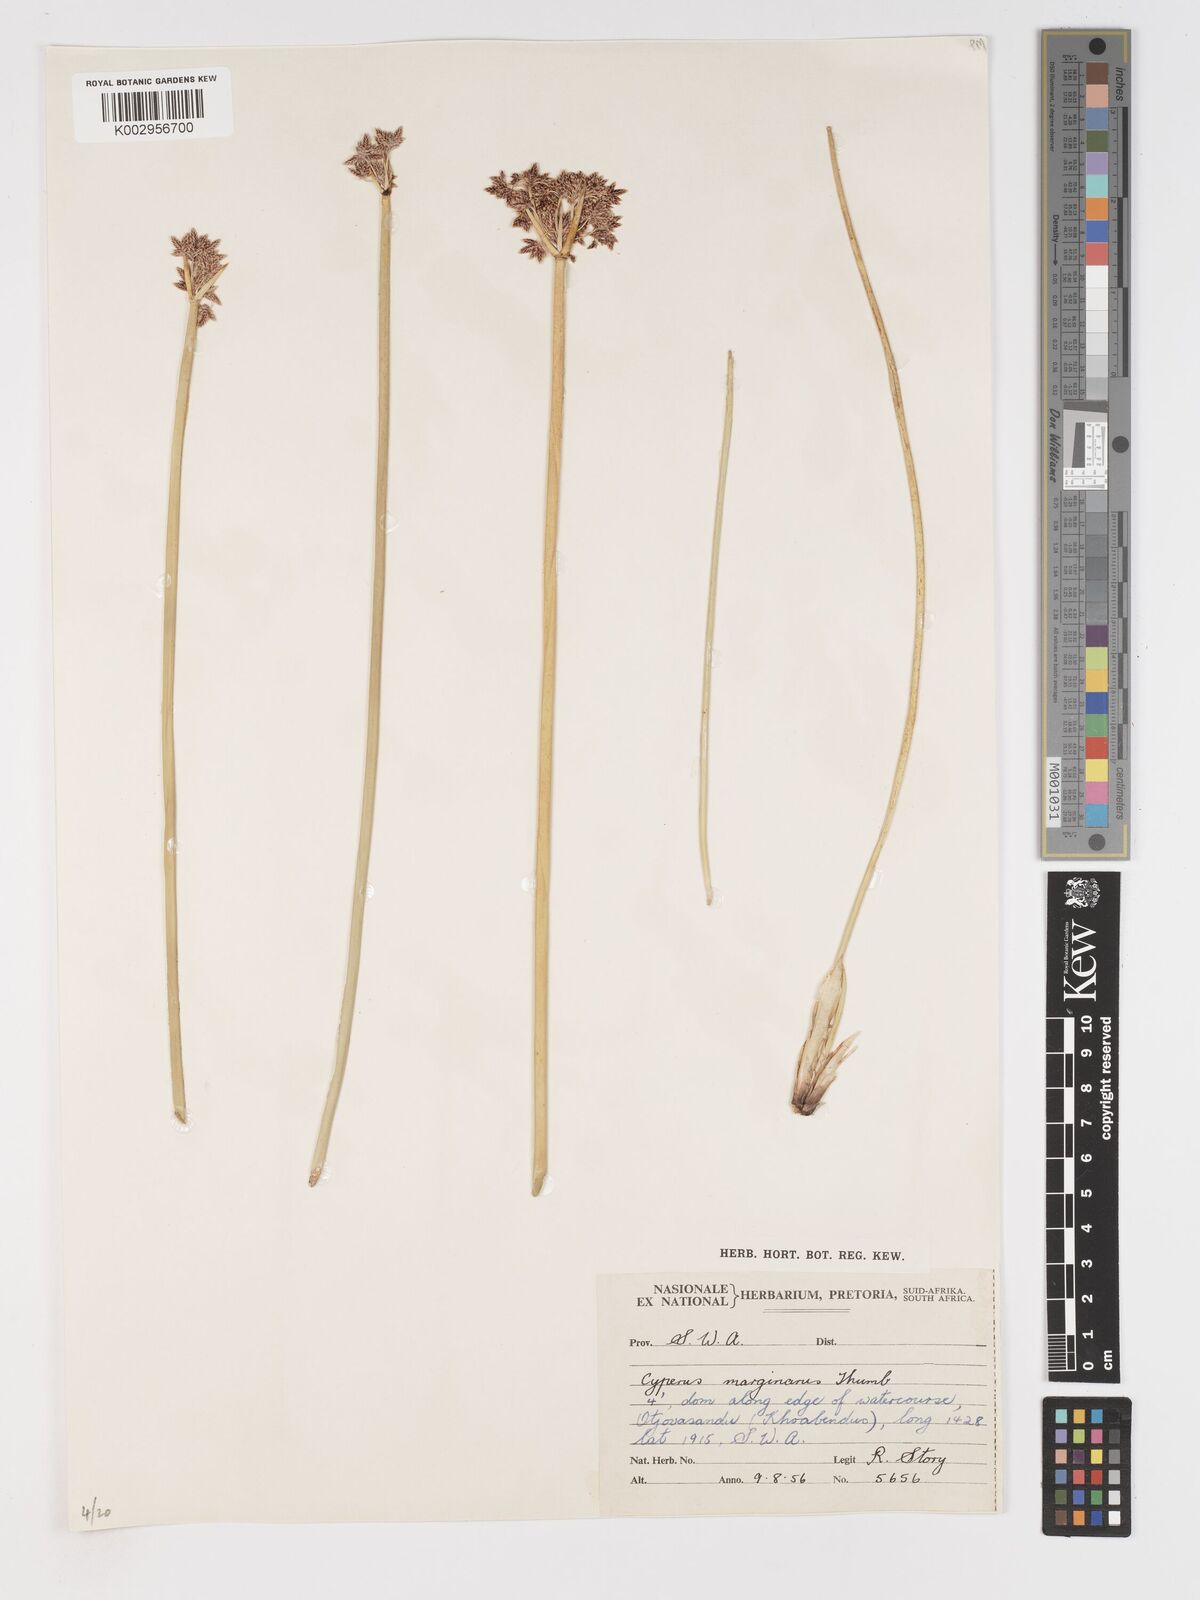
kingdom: Plantae
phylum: Tracheophyta
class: Liliopsida
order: Poales
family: Cyperaceae
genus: Cyperus
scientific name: Cyperus marginatus
